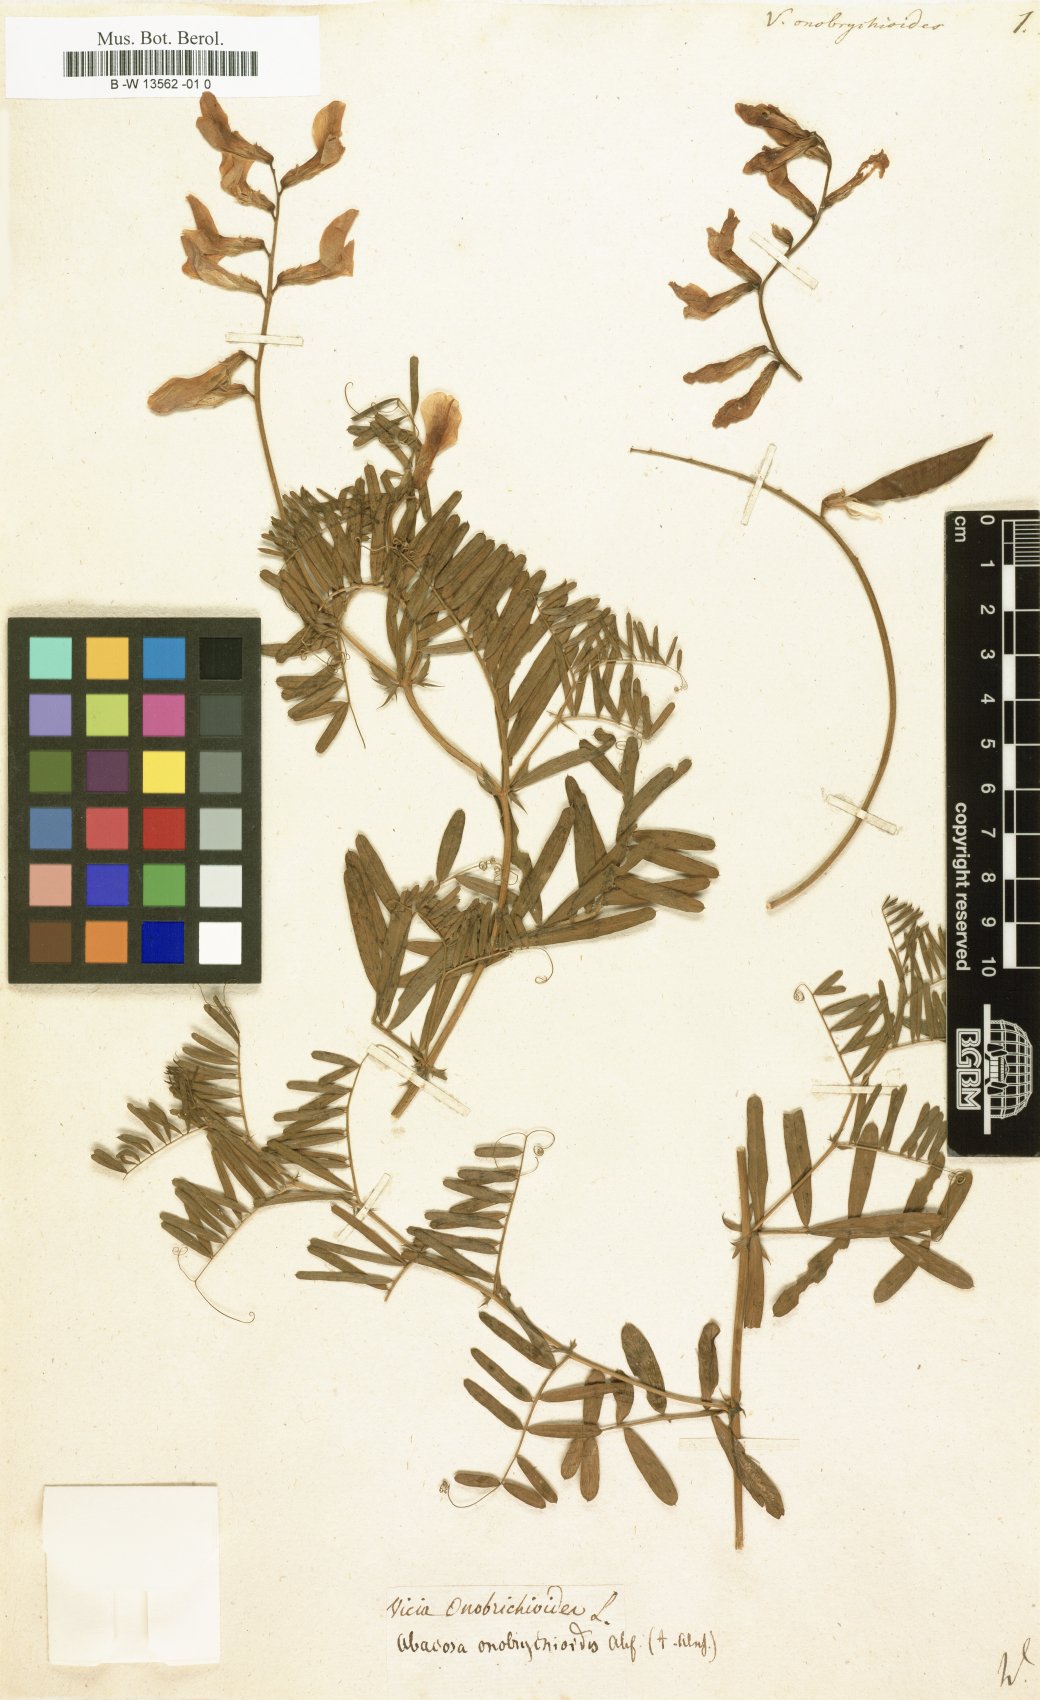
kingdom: Plantae
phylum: Tracheophyta
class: Magnoliopsida
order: Fabales
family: Fabaceae
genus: Vicia
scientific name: Vicia onobrychioides
